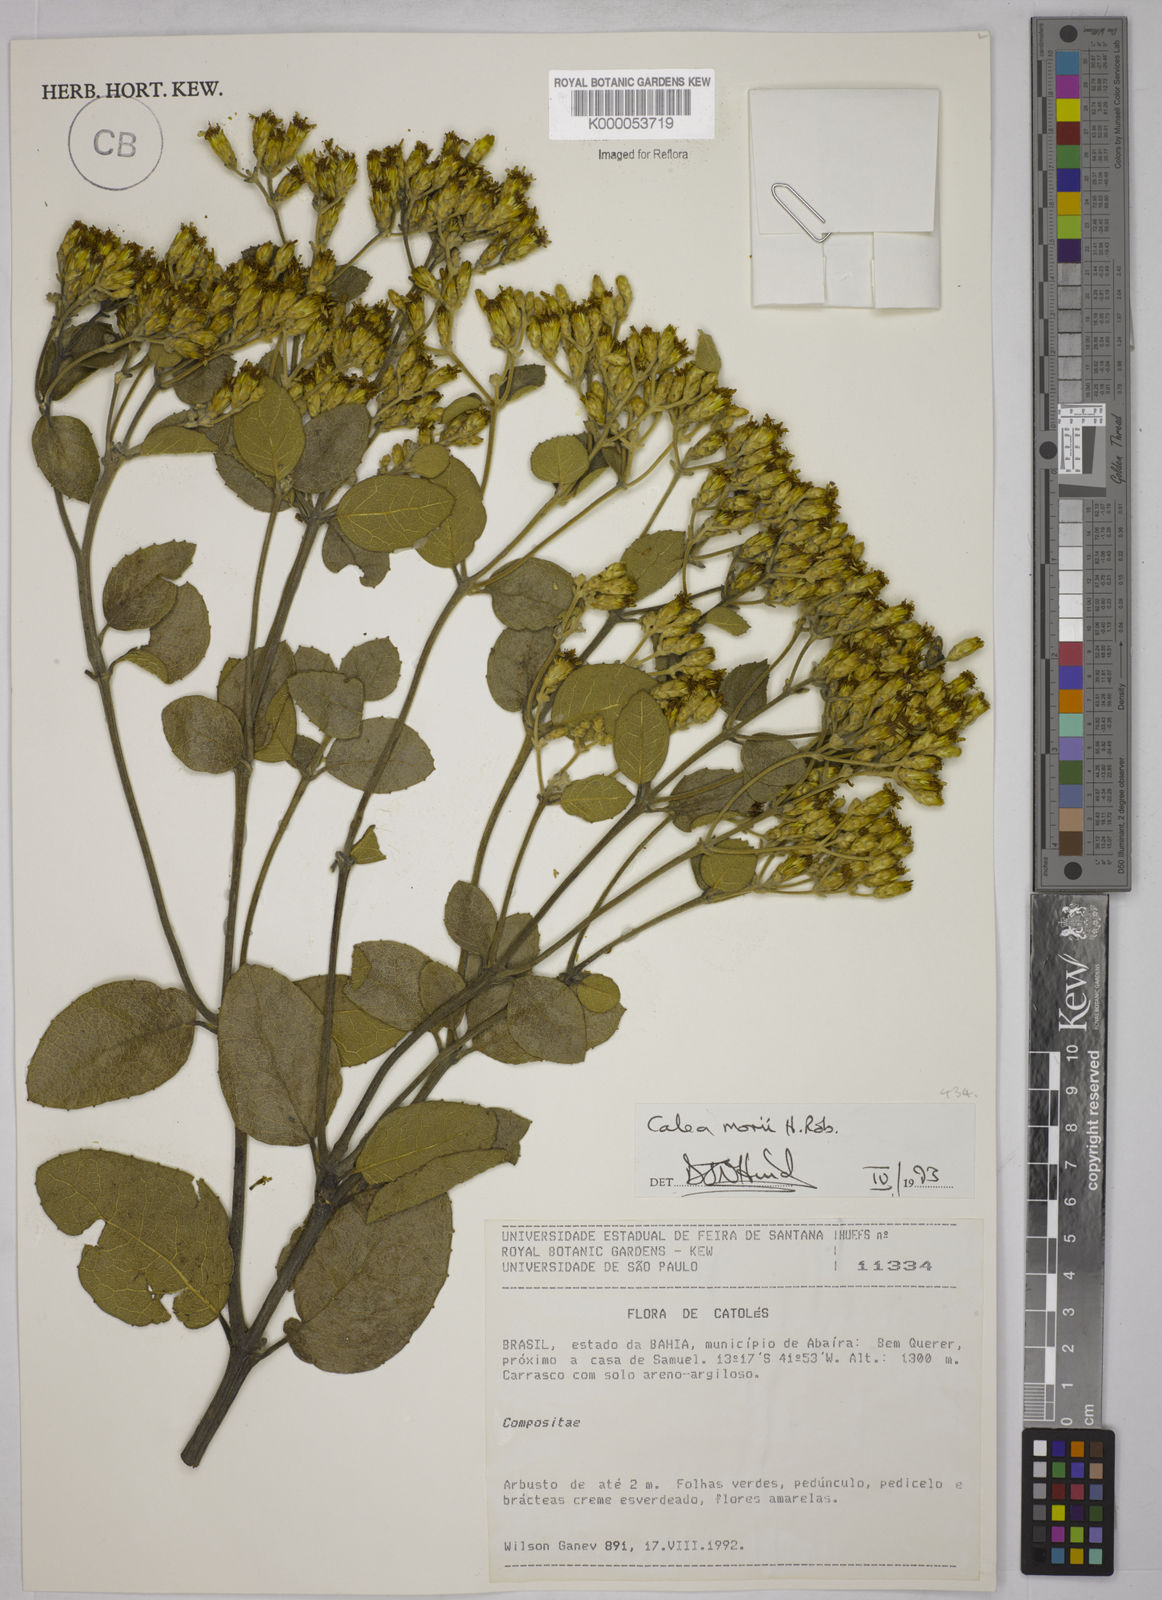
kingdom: Plantae
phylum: Tracheophyta
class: Magnoliopsida
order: Asterales
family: Asteraceae
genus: Calea
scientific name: Calea morii
